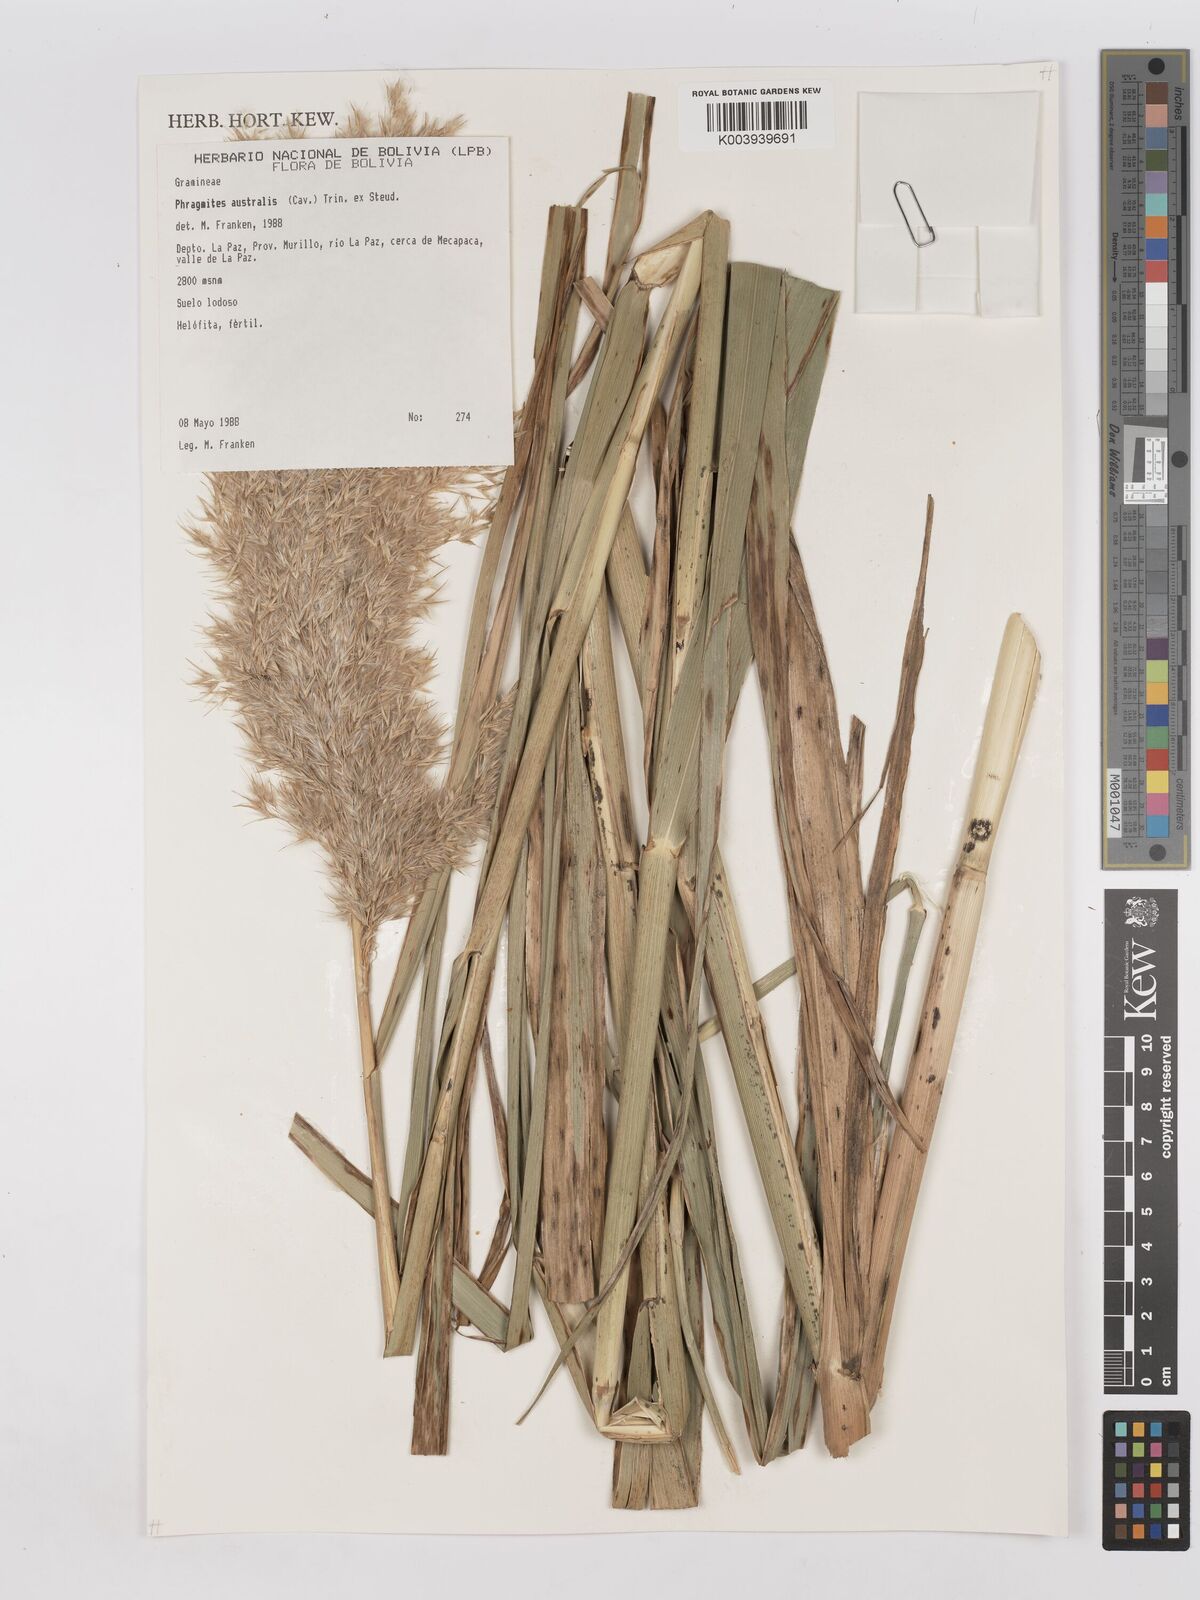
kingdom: Plantae
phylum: Tracheophyta
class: Liliopsida
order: Poales
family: Poaceae
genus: Phragmites
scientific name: Phragmites australis
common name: Common reed
